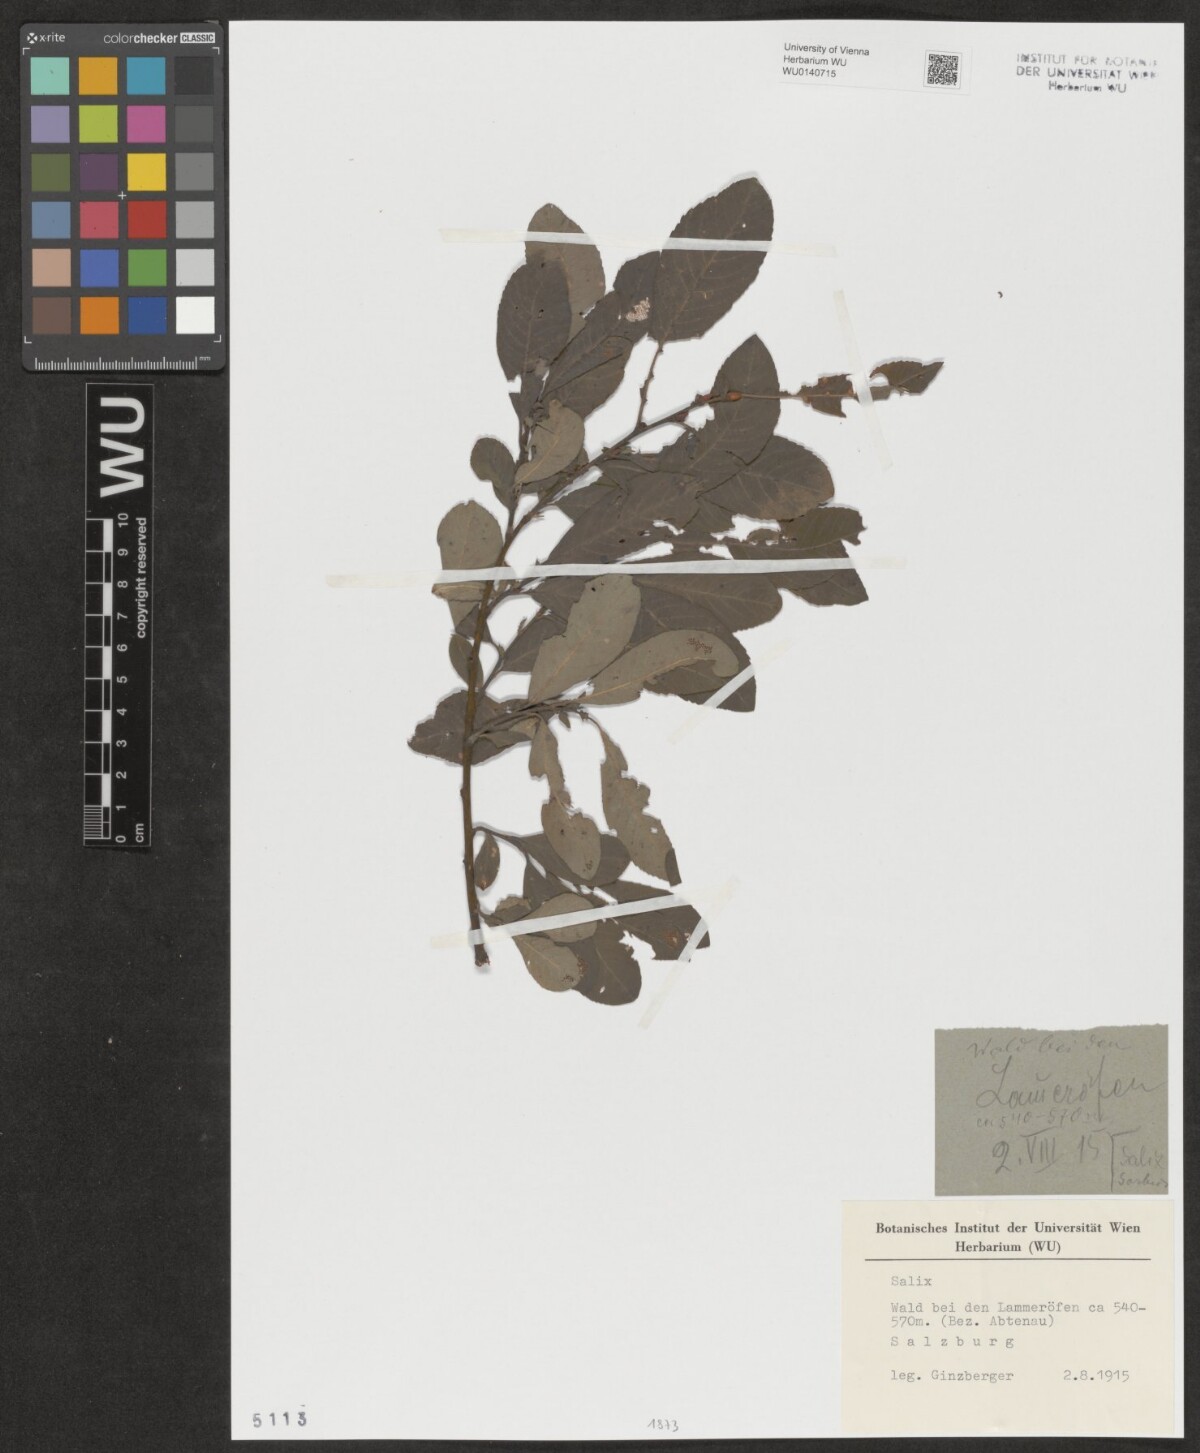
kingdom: Plantae
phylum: Tracheophyta
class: Magnoliopsida
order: Malpighiales
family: Salicaceae
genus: Salix
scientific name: Salix
